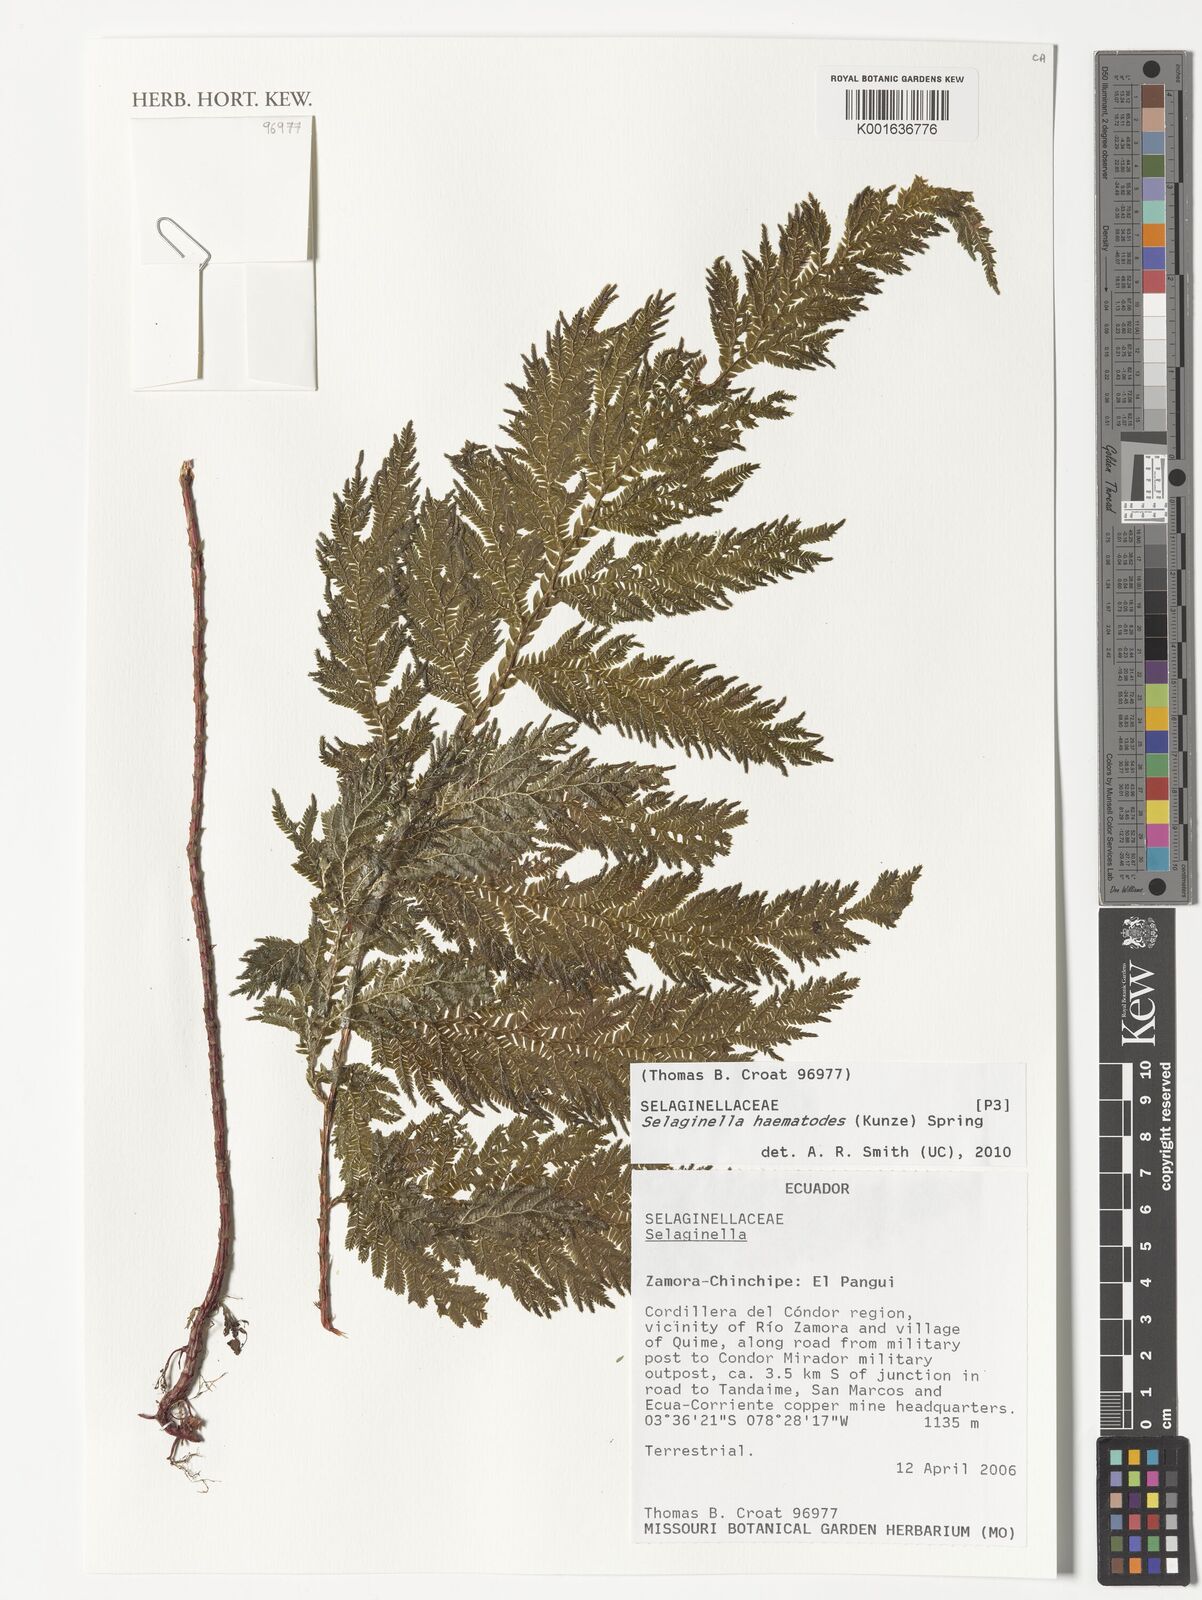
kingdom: Plantae
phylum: Tracheophyta
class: Lycopodiopsida
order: Selaginellales
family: Selaginellaceae
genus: Selaginella
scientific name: Selaginella haematodes
